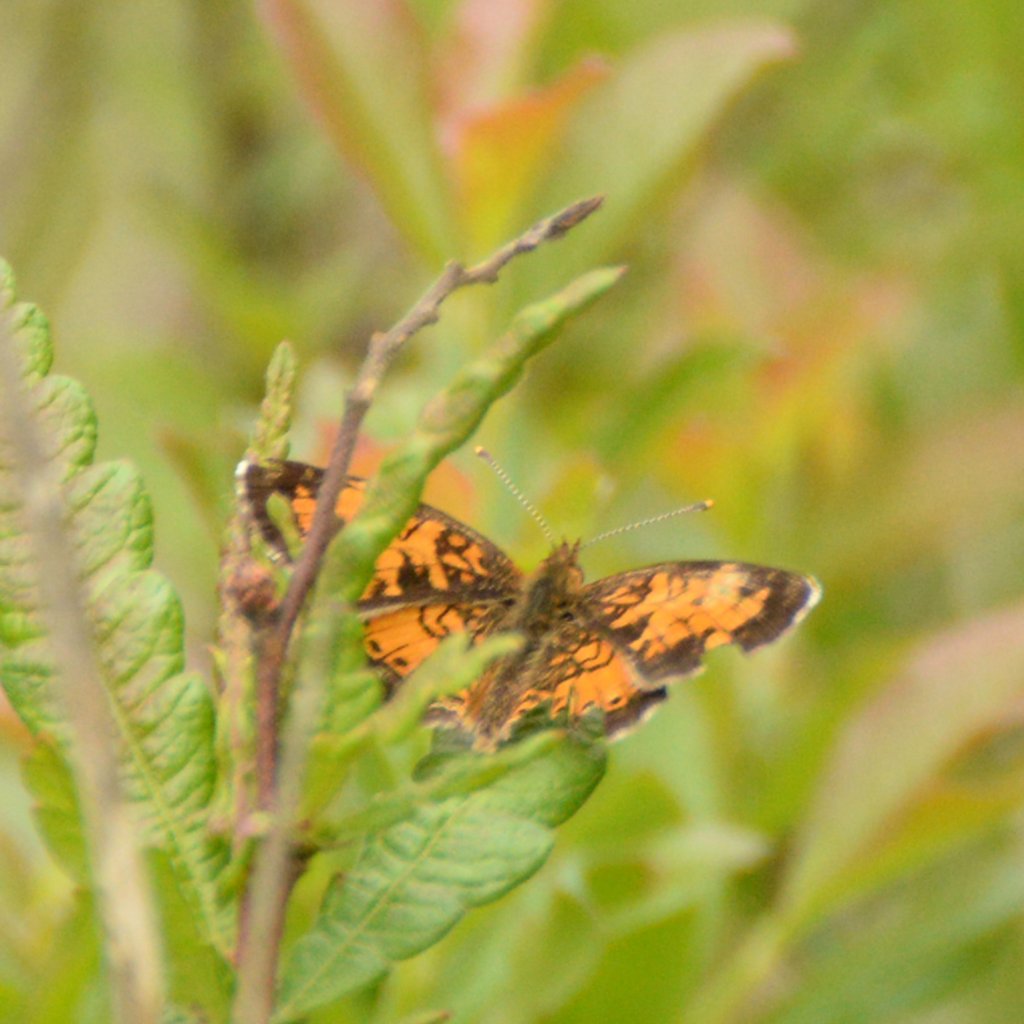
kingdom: Animalia
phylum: Arthropoda
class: Insecta
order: Lepidoptera
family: Nymphalidae
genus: Phyciodes
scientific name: Phyciodes tharos
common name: Northern Crescent
